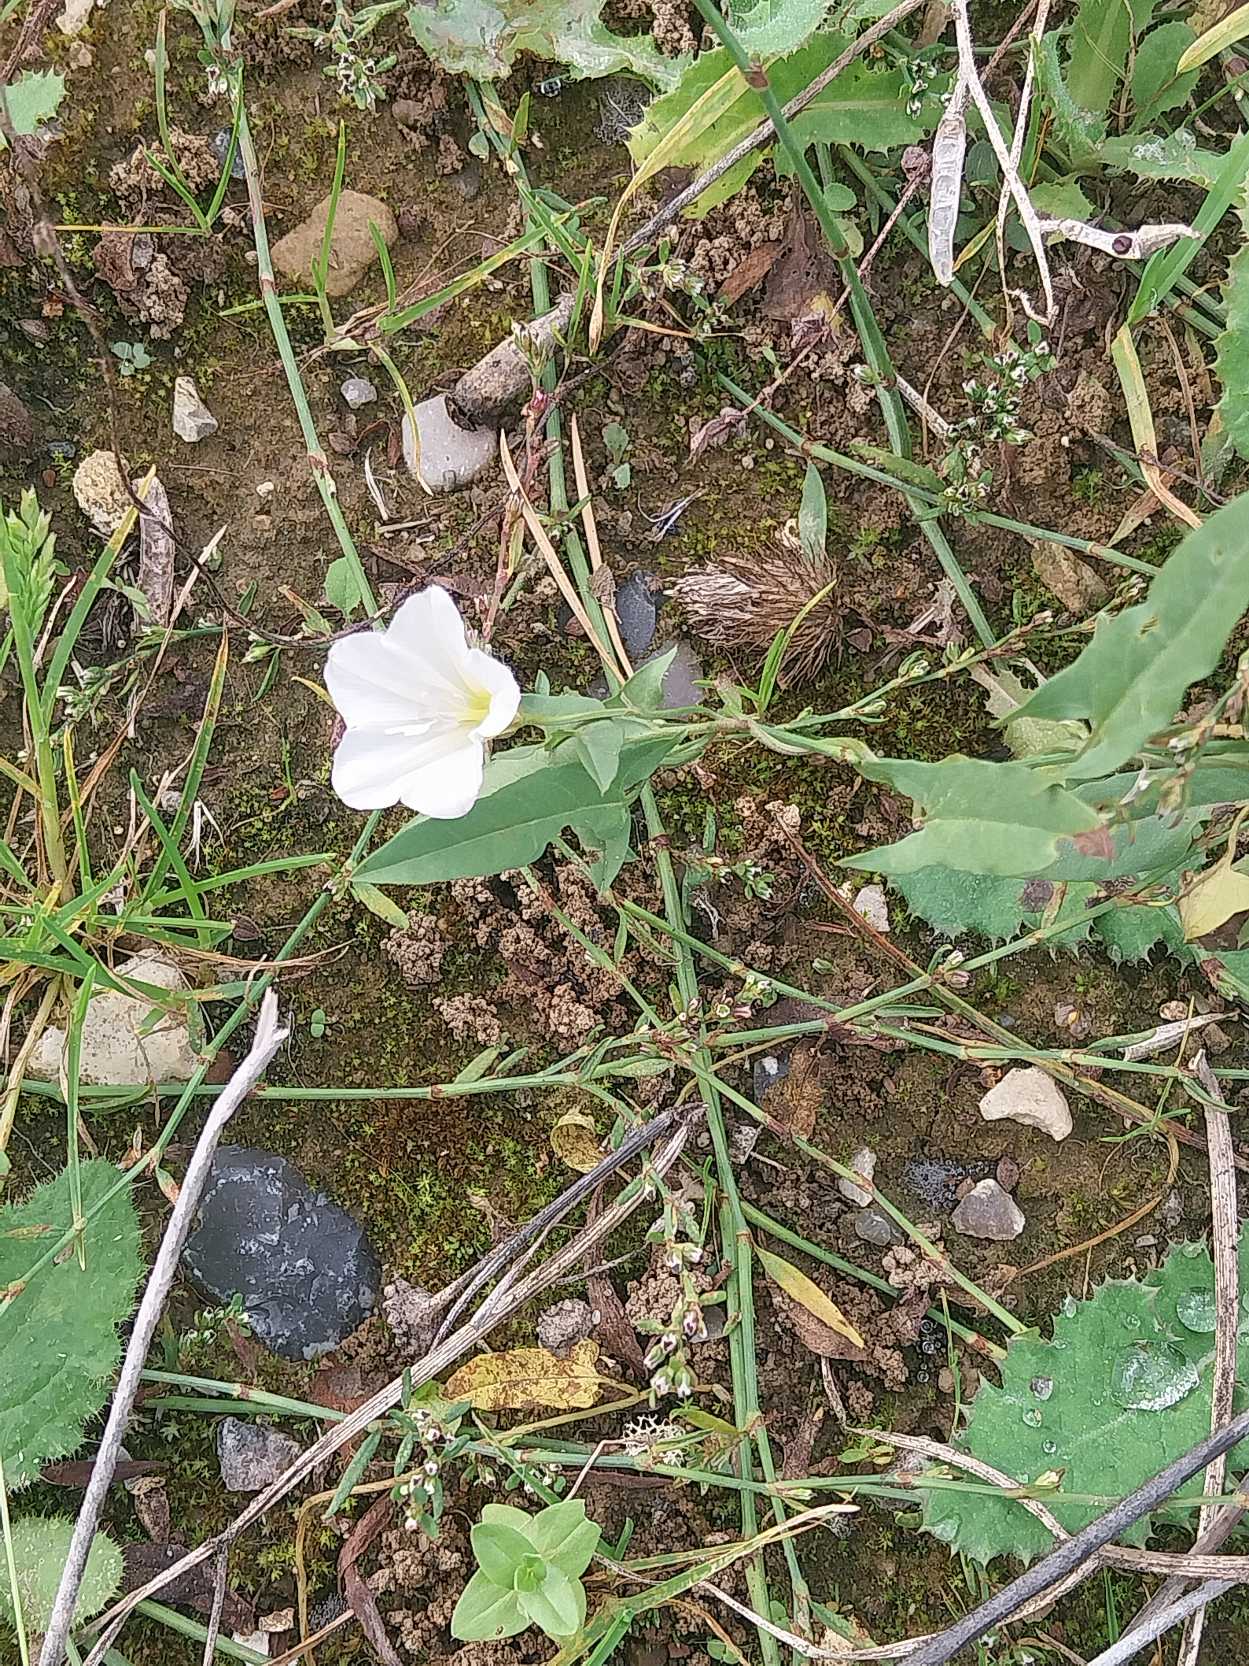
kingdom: Plantae
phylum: Tracheophyta
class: Magnoliopsida
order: Solanales
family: Convolvulaceae
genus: Convolvulus
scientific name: Convolvulus arvensis
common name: Ager-snerle
